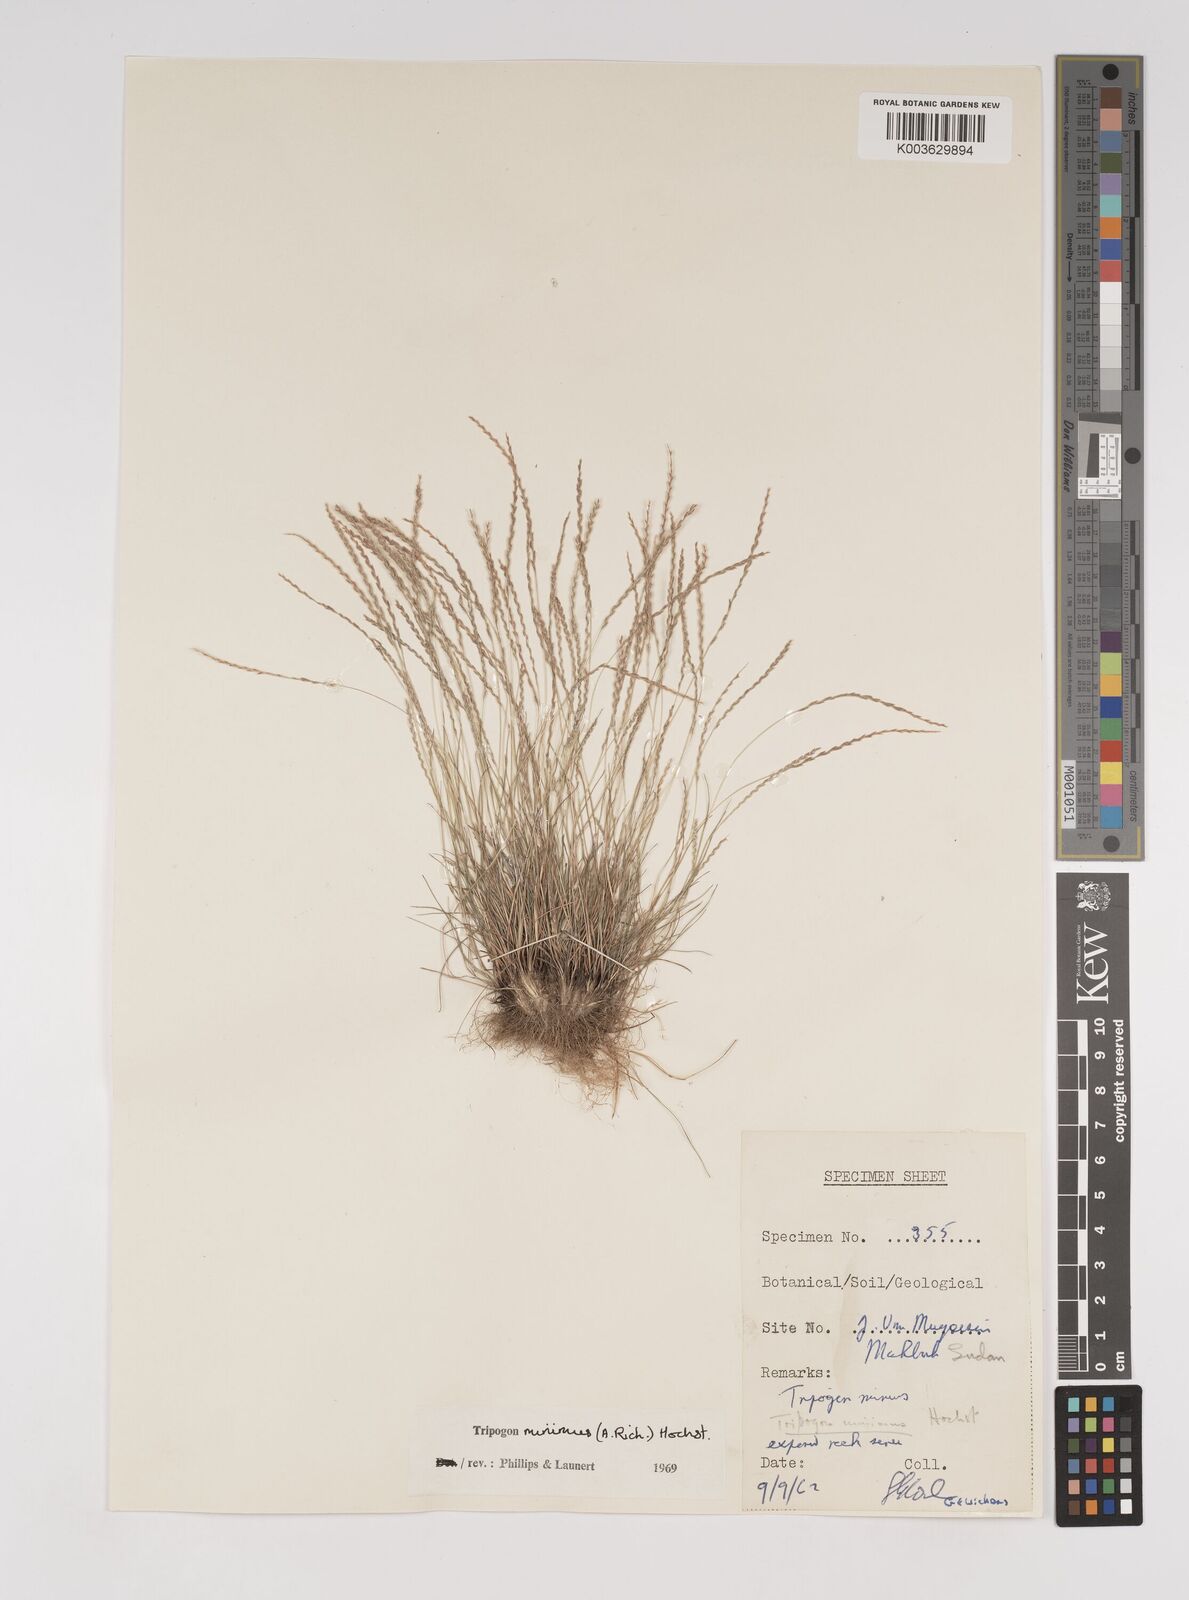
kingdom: Plantae
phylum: Tracheophyta
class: Liliopsida
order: Poales
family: Poaceae
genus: Tripogonella
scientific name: Tripogonella minima
